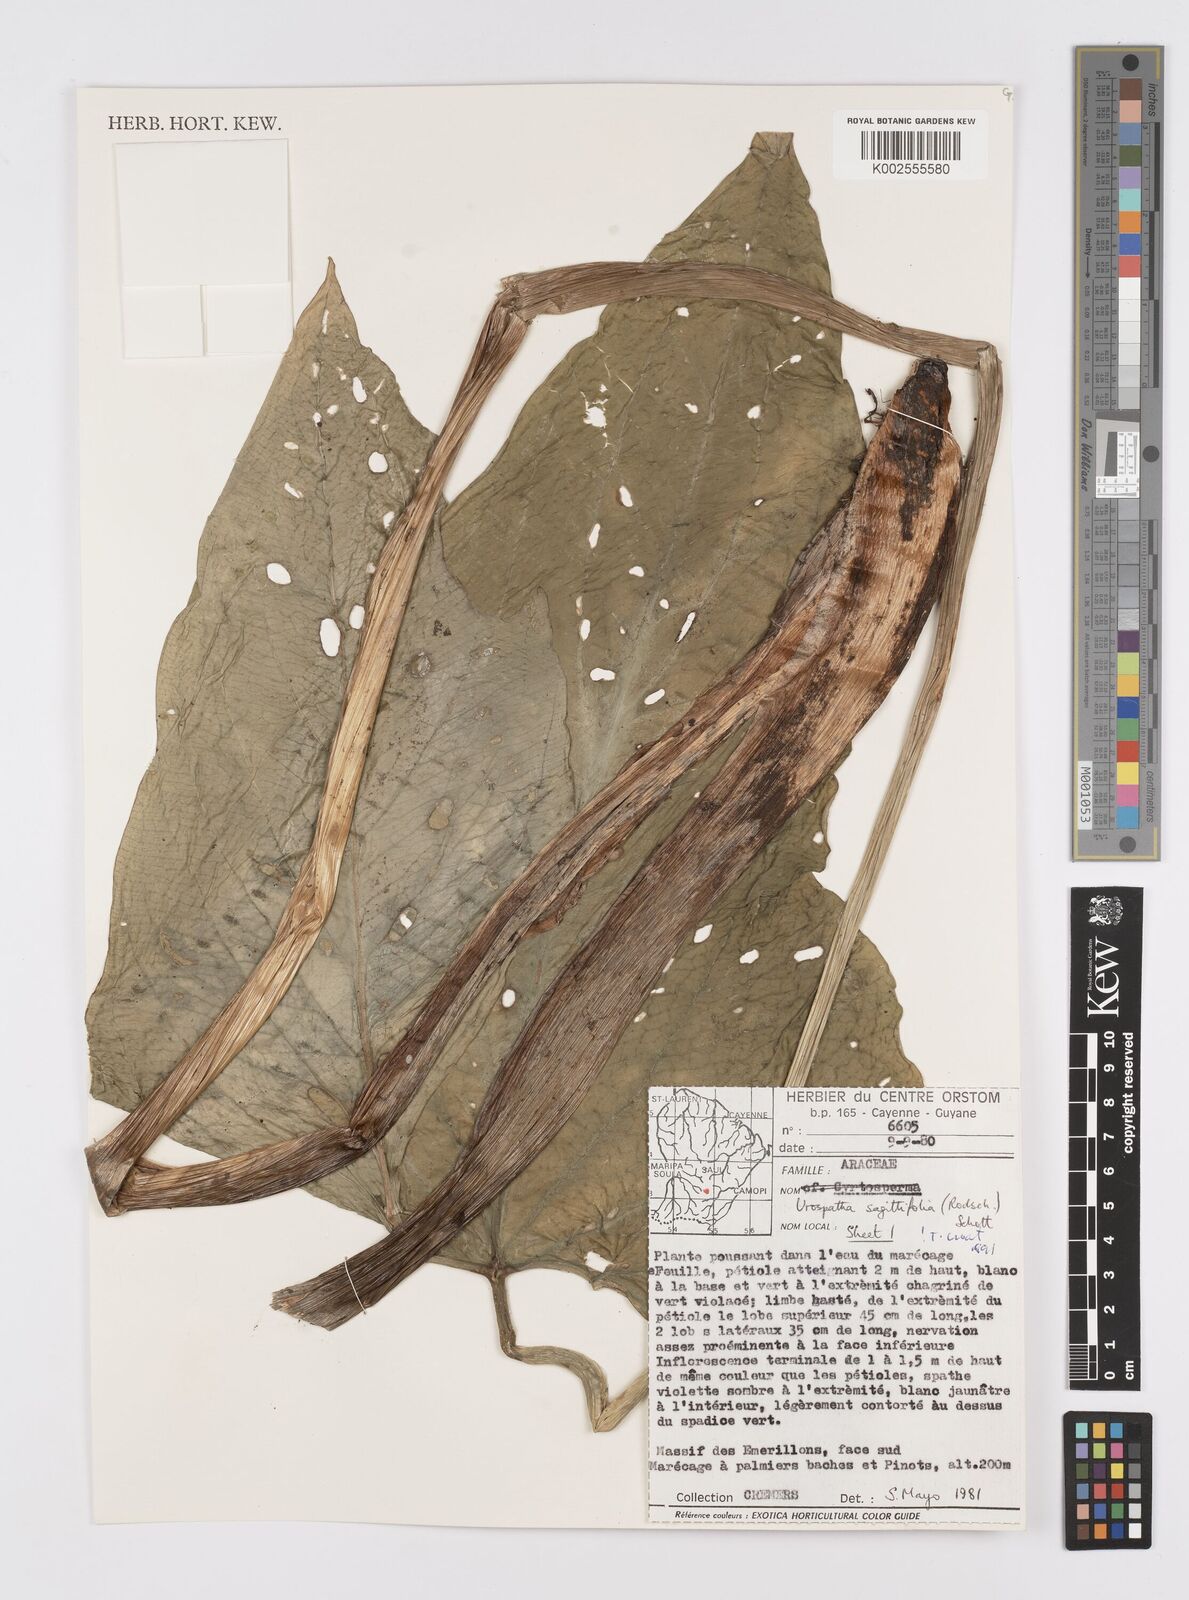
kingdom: Plantae
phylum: Tracheophyta
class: Liliopsida
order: Alismatales
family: Araceae
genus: Urospatha
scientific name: Urospatha sagittifolia
